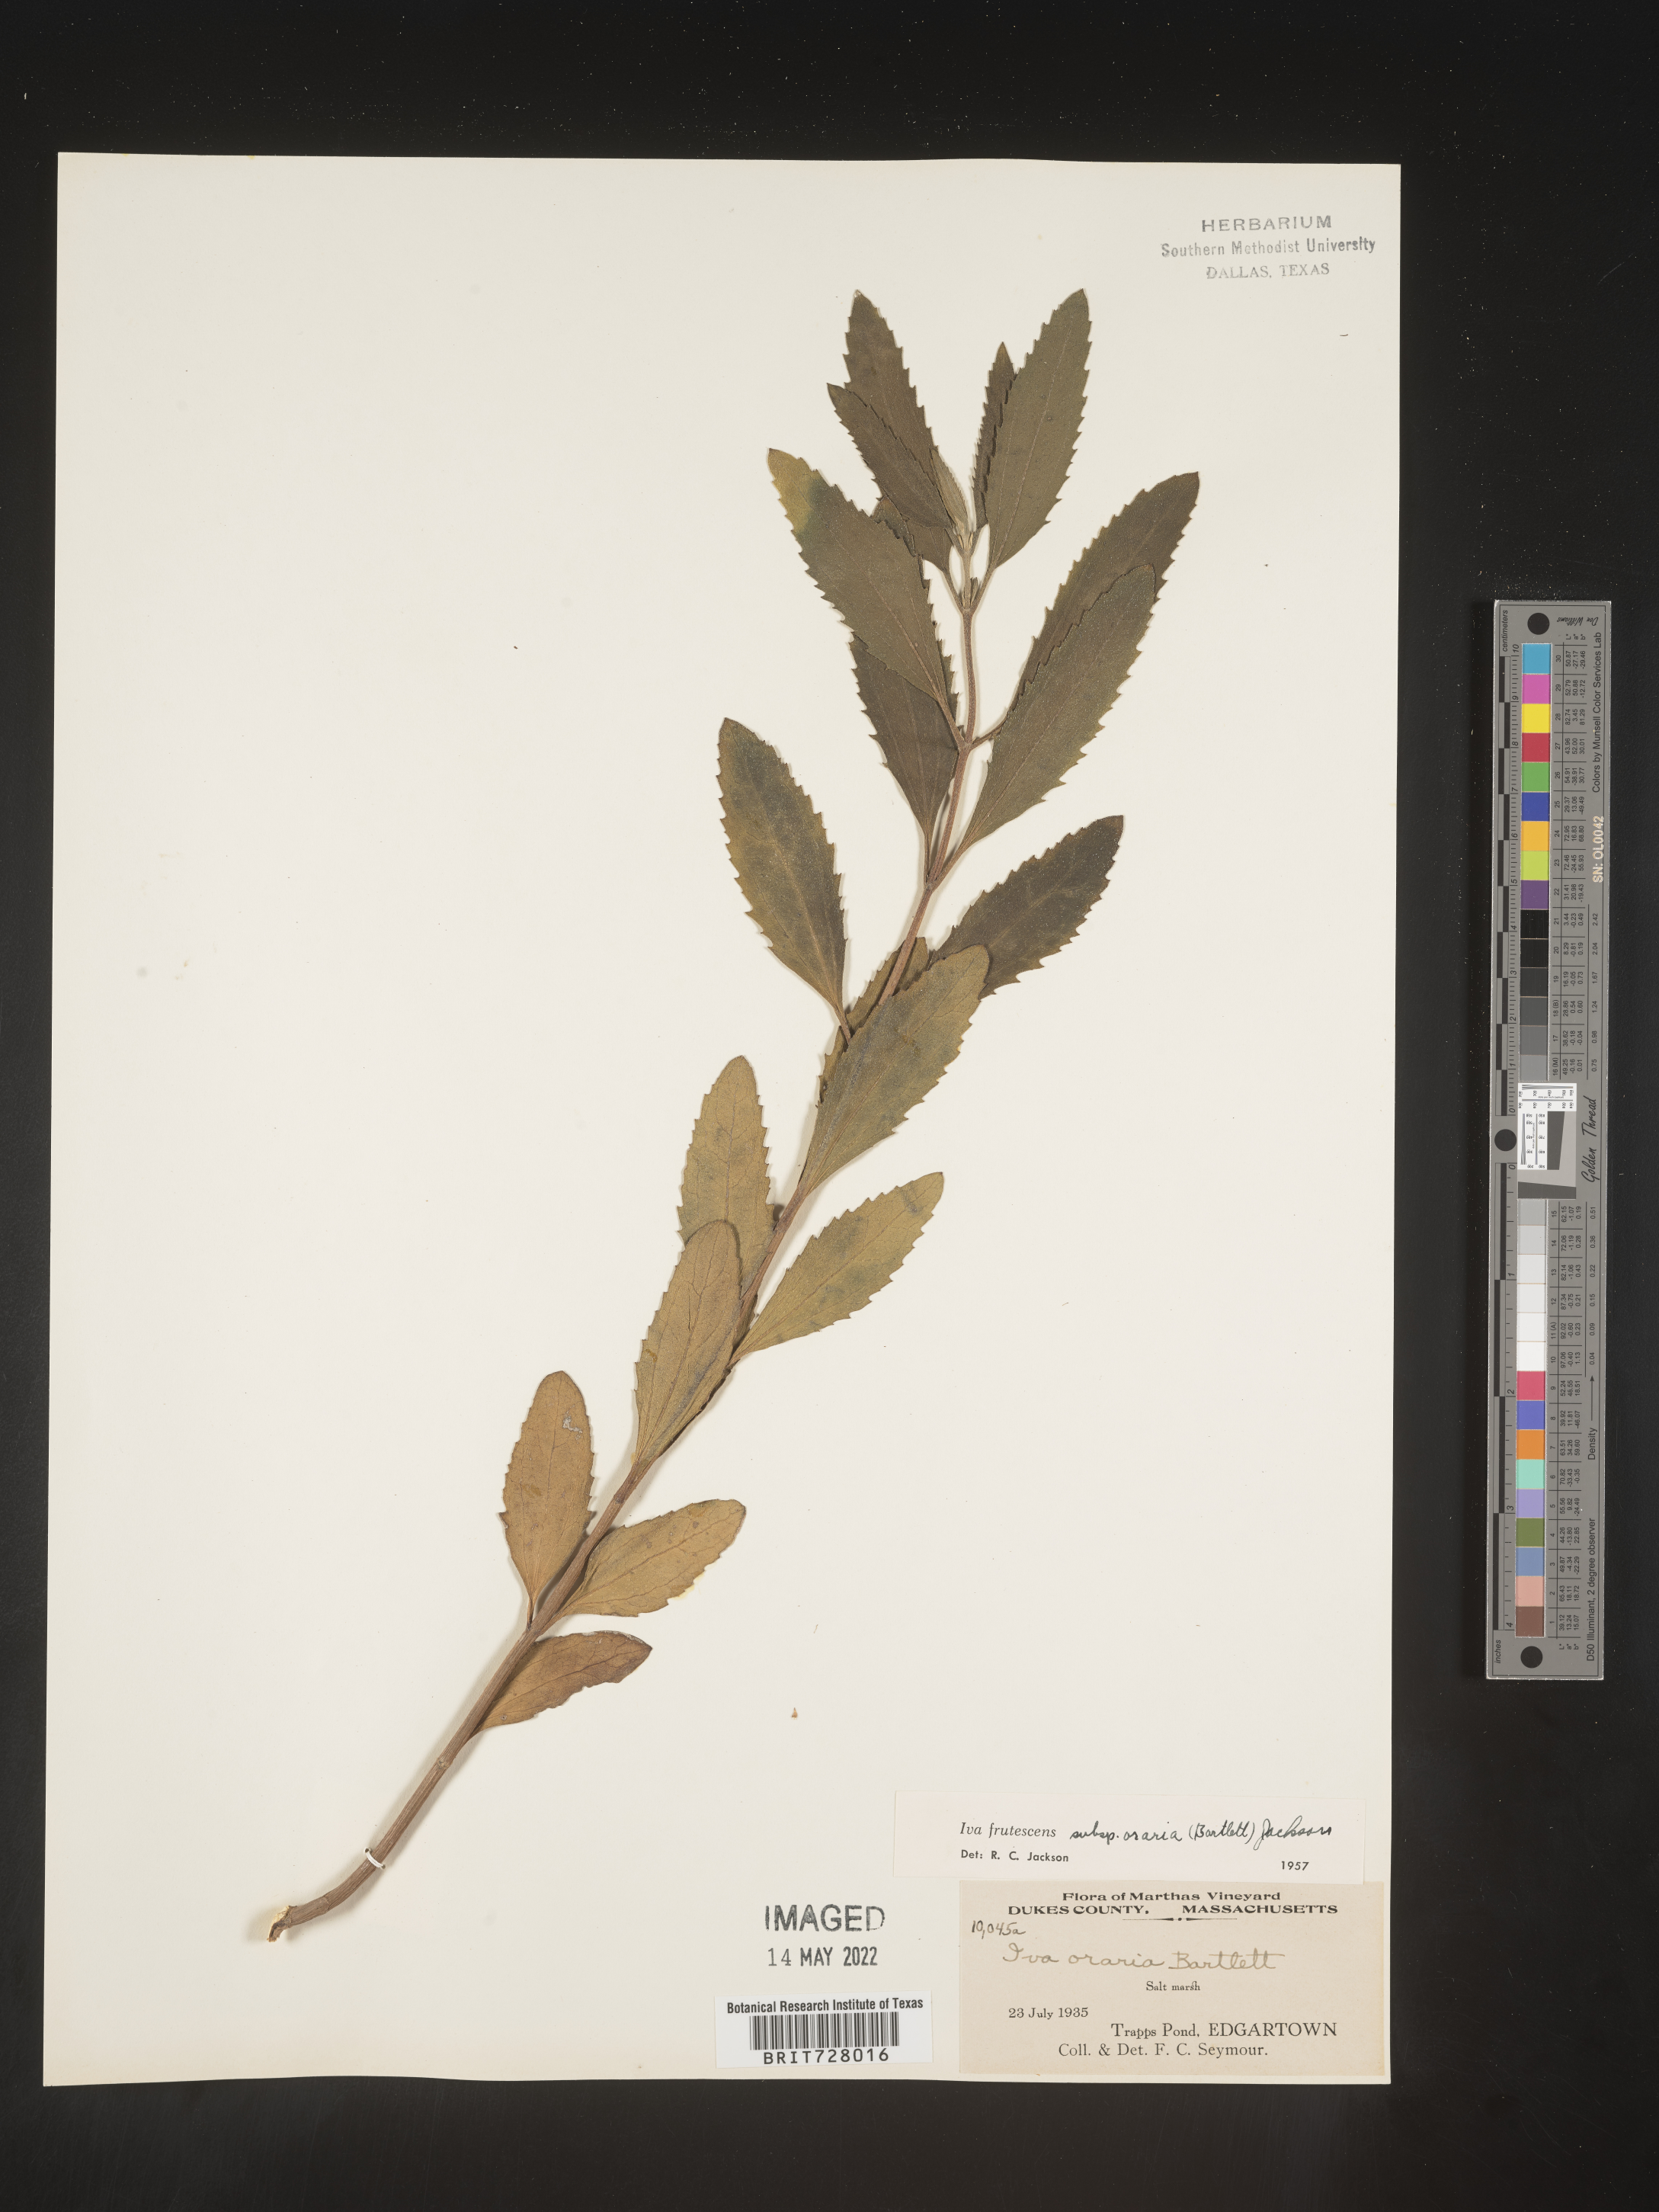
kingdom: Plantae
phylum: Tracheophyta
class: Magnoliopsida
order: Asterales
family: Asteraceae
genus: Iva
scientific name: Iva frutescens
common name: Big-leaved marsh-elder
